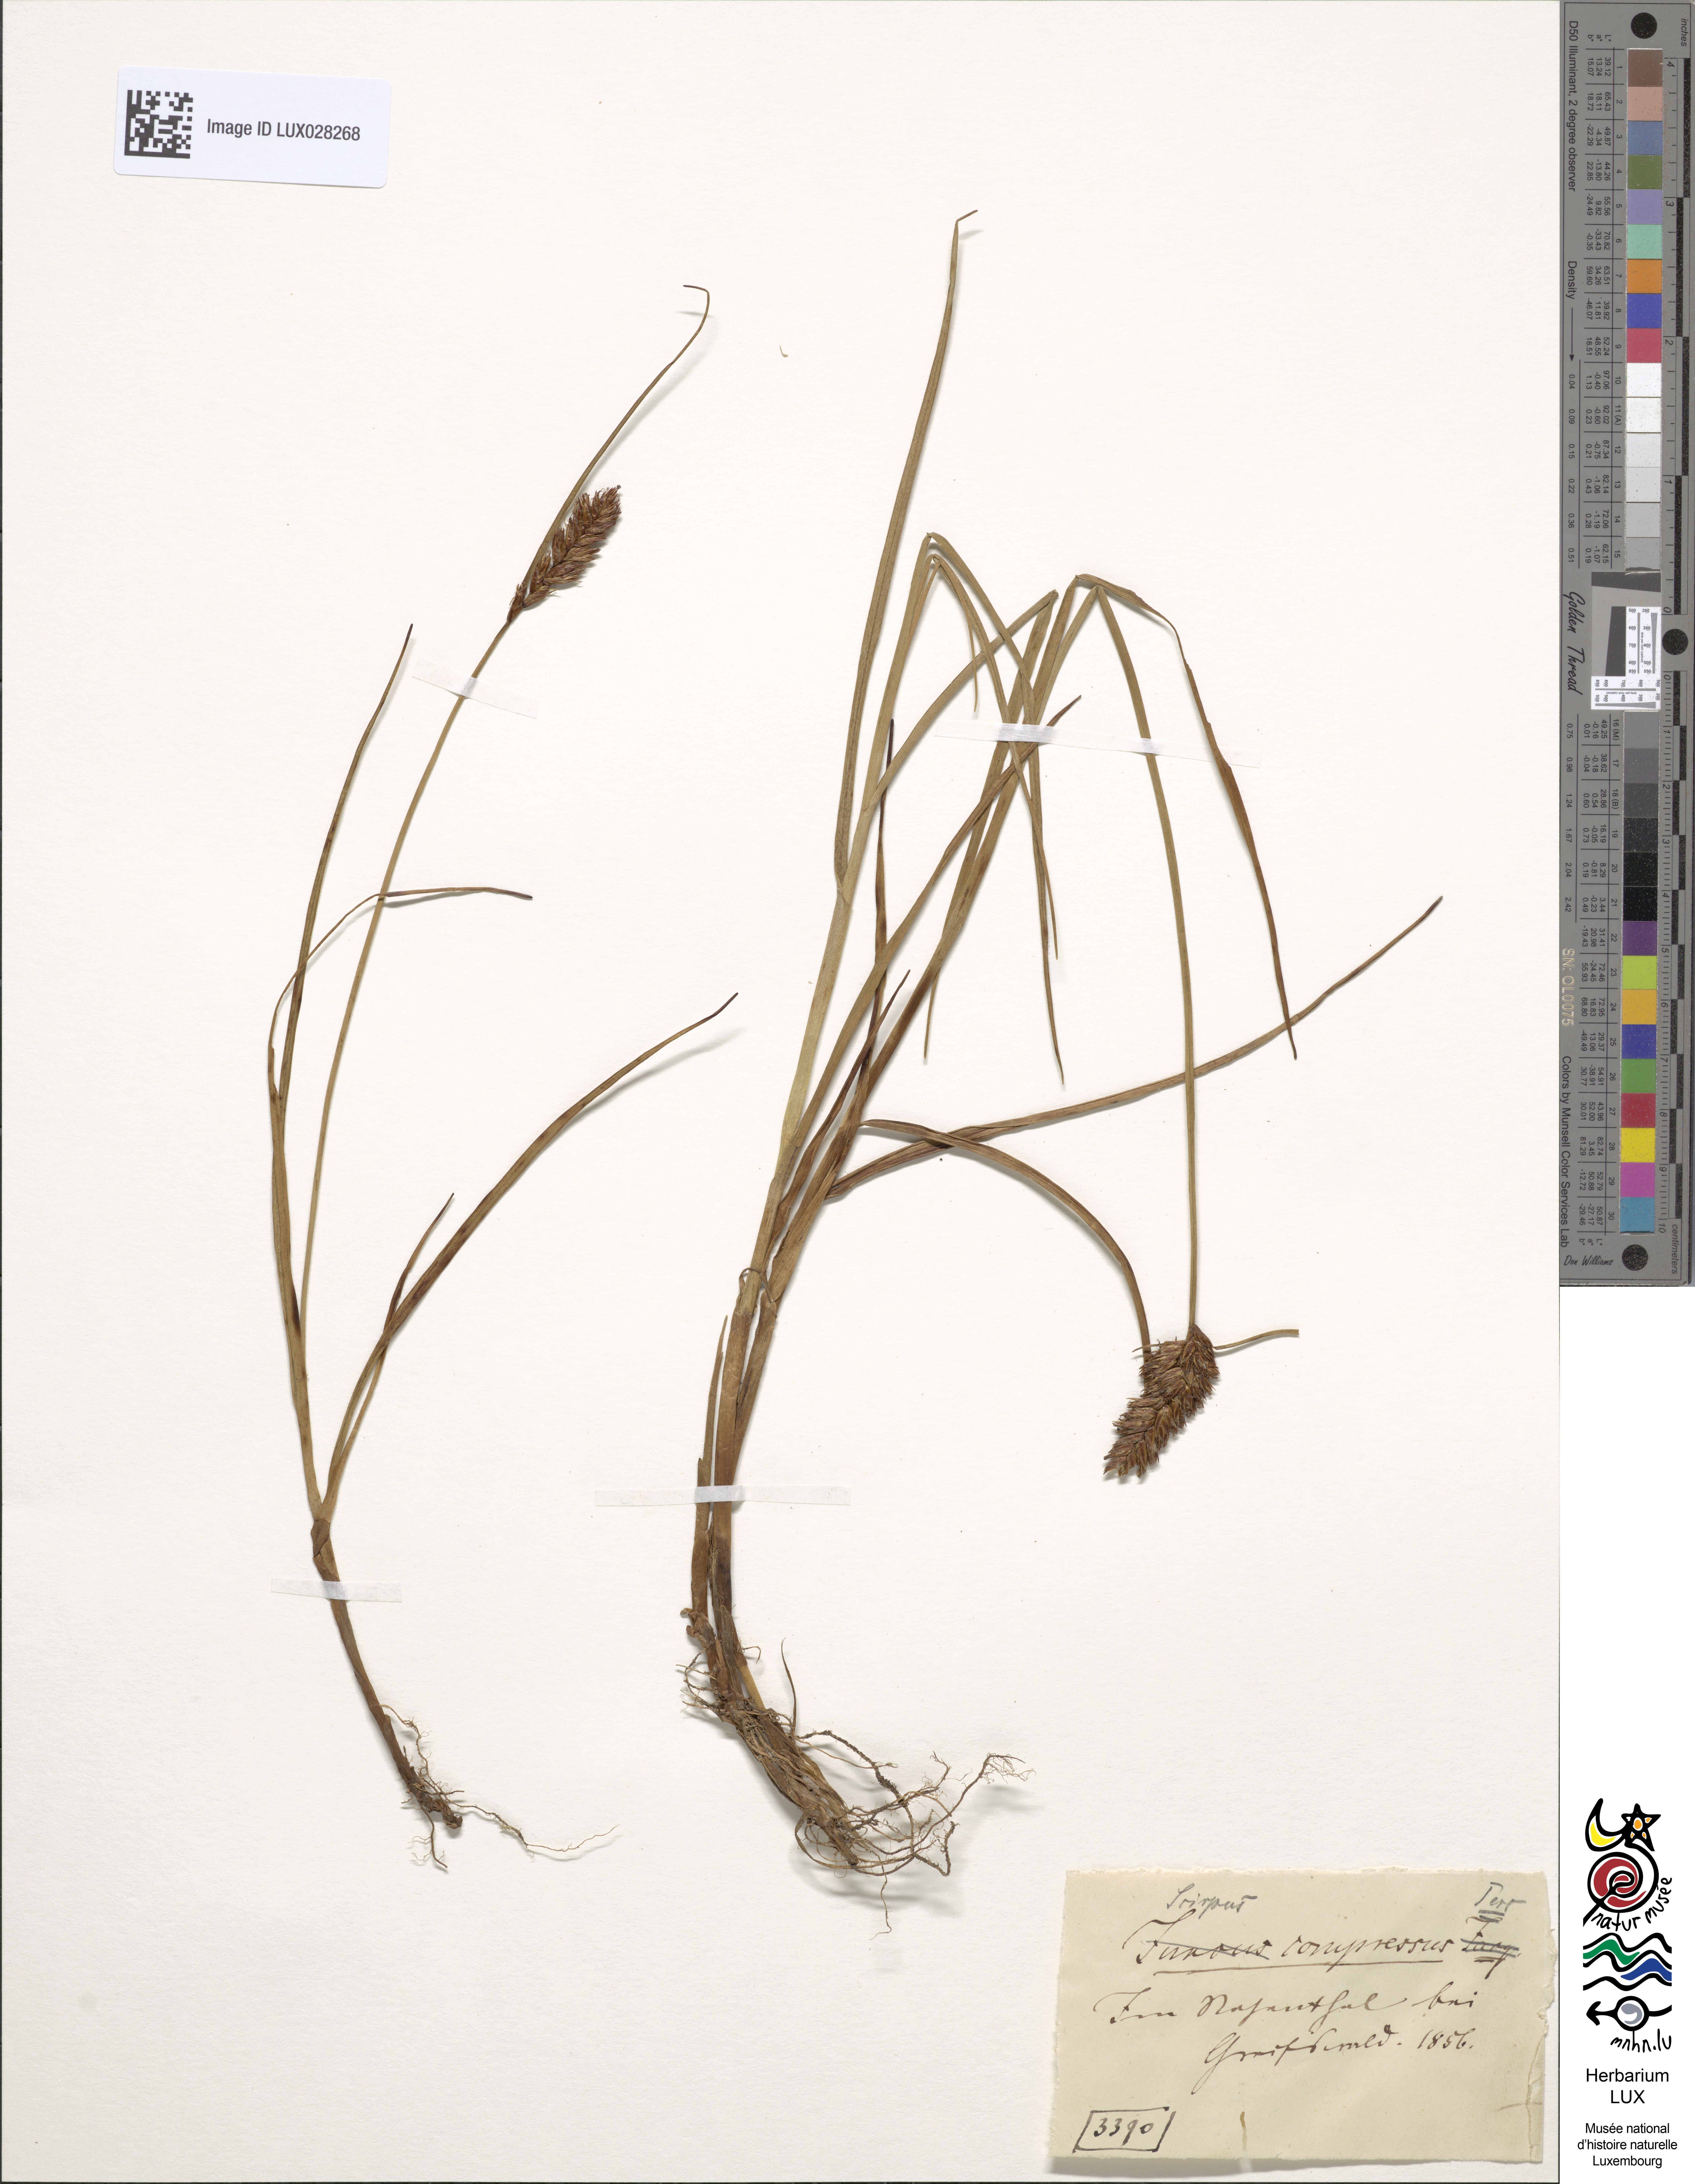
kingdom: Plantae
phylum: Tracheophyta
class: Liliopsida
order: Poales
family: Cyperaceae
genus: Blysmus
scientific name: Blysmus compressus
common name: Flat-sedge
